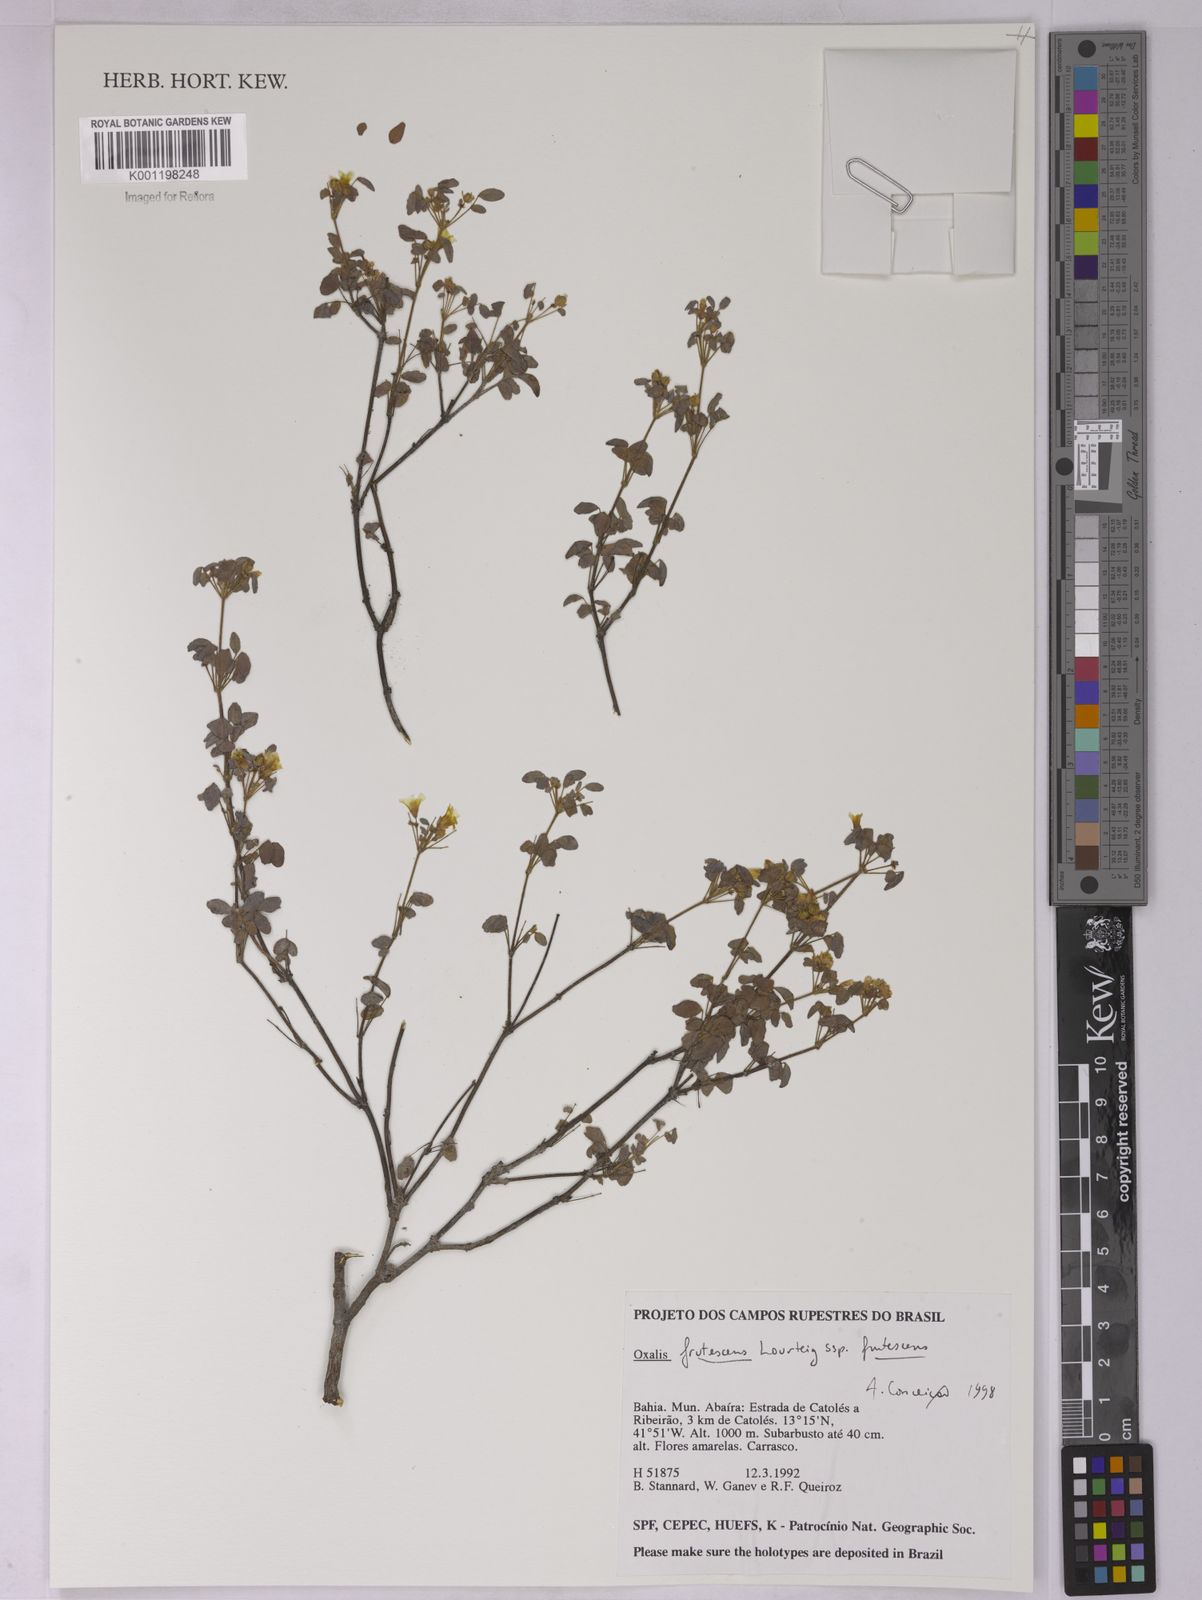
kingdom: Plantae
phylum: Tracheophyta
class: Magnoliopsida
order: Oxalidales
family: Oxalidaceae
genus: Oxalis
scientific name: Oxalis frutescens
